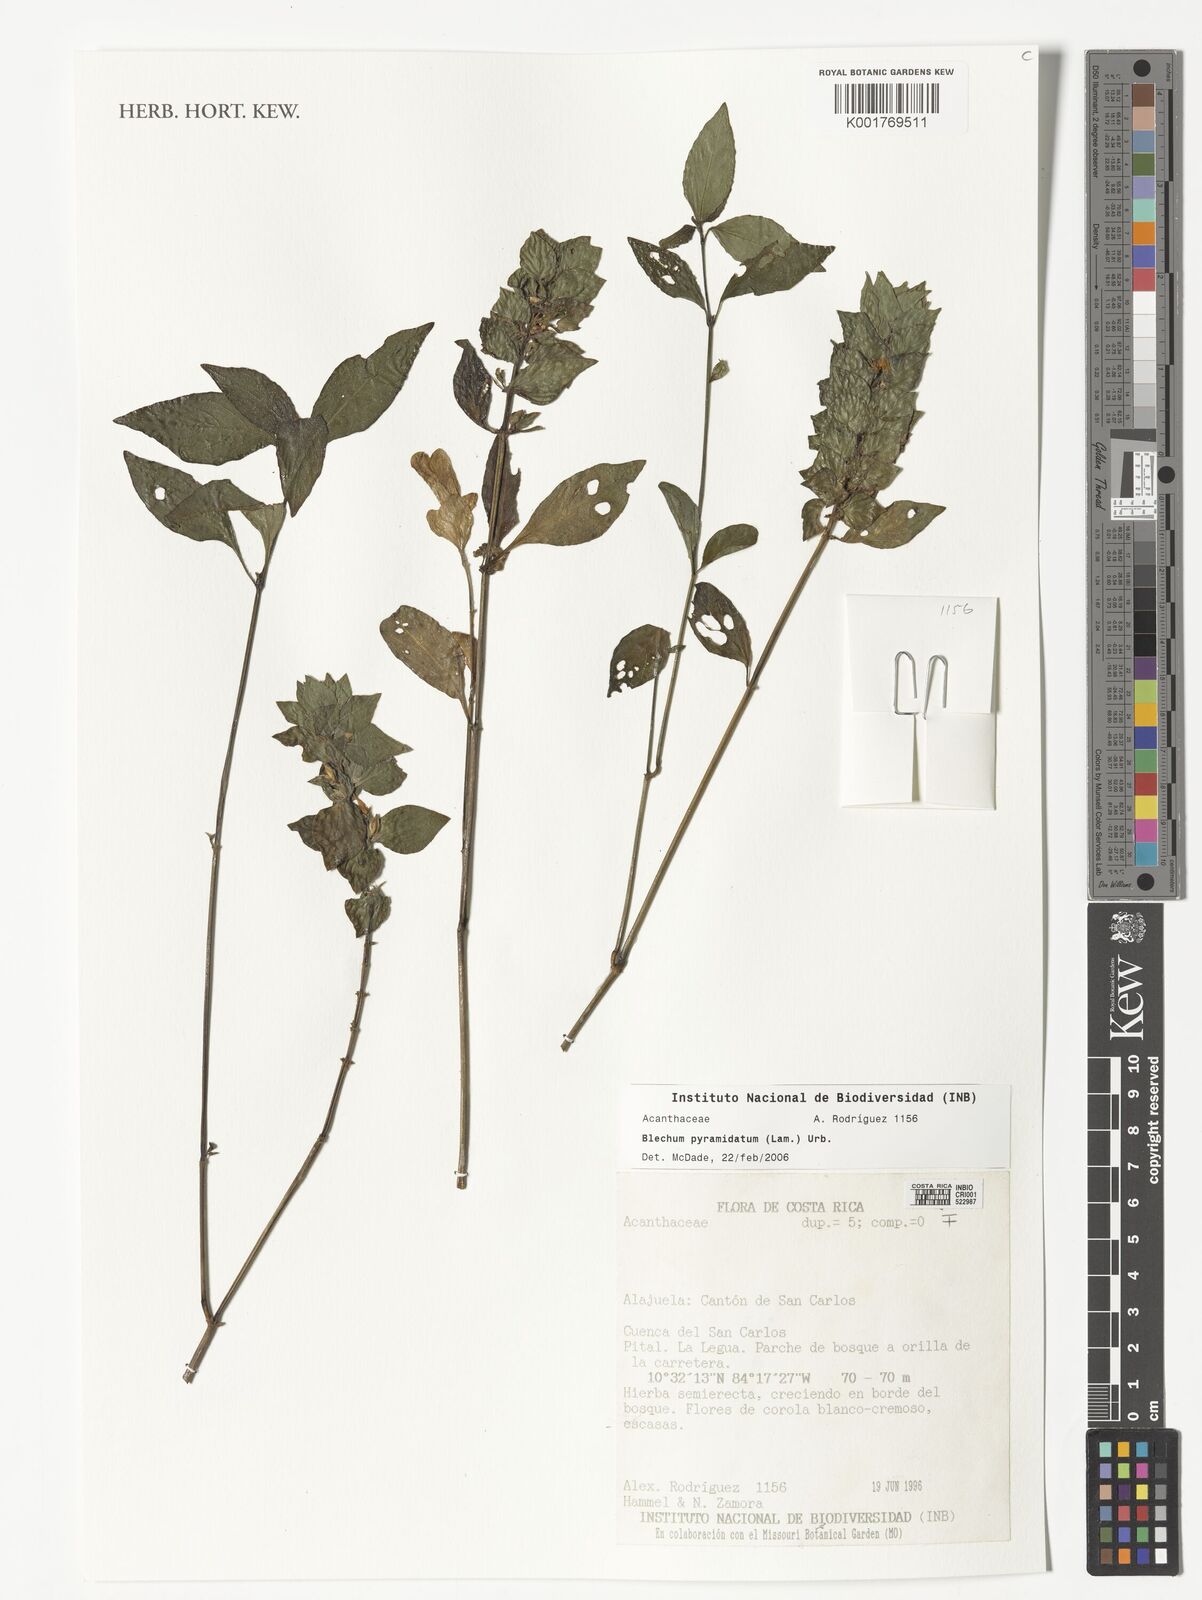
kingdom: Plantae
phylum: Tracheophyta
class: Magnoliopsida
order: Lamiales
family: Acanthaceae
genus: Ruellia
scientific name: Ruellia blechum
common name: Browne's blechum
